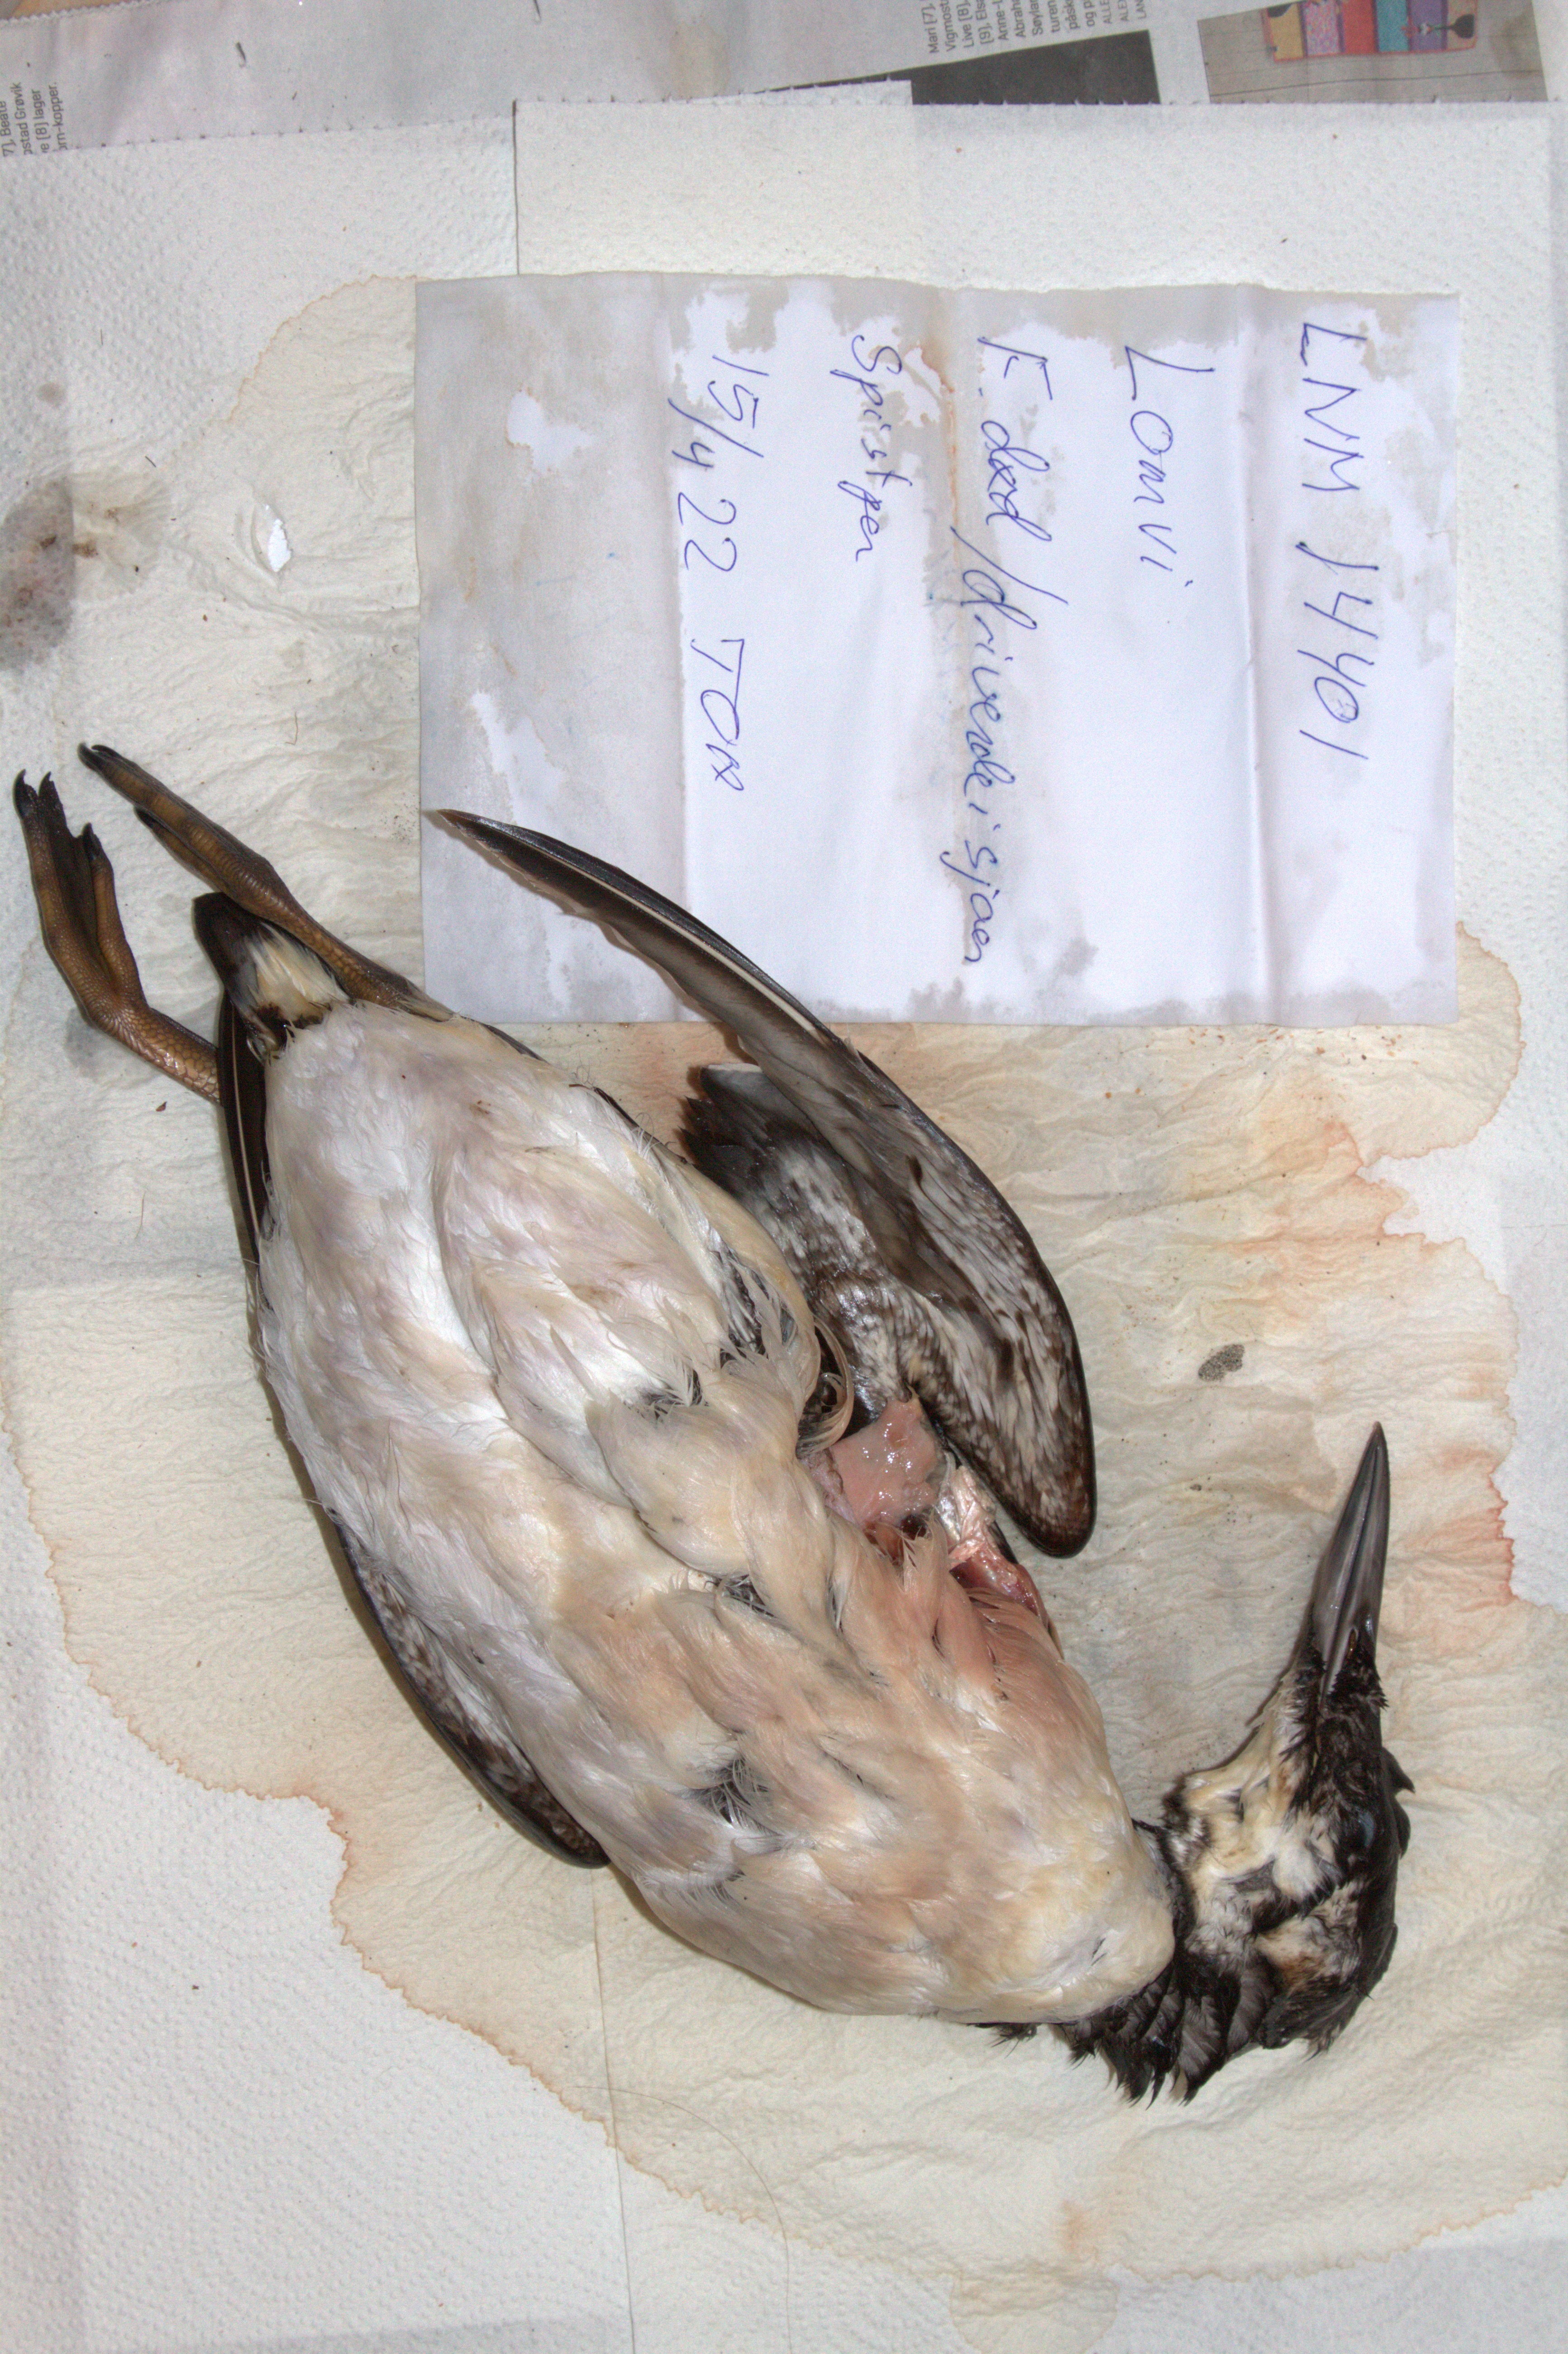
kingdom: Animalia
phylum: Chordata
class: Aves
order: Charadriiformes
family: Alcidae
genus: Uria
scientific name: Uria aalge
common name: Common murre
